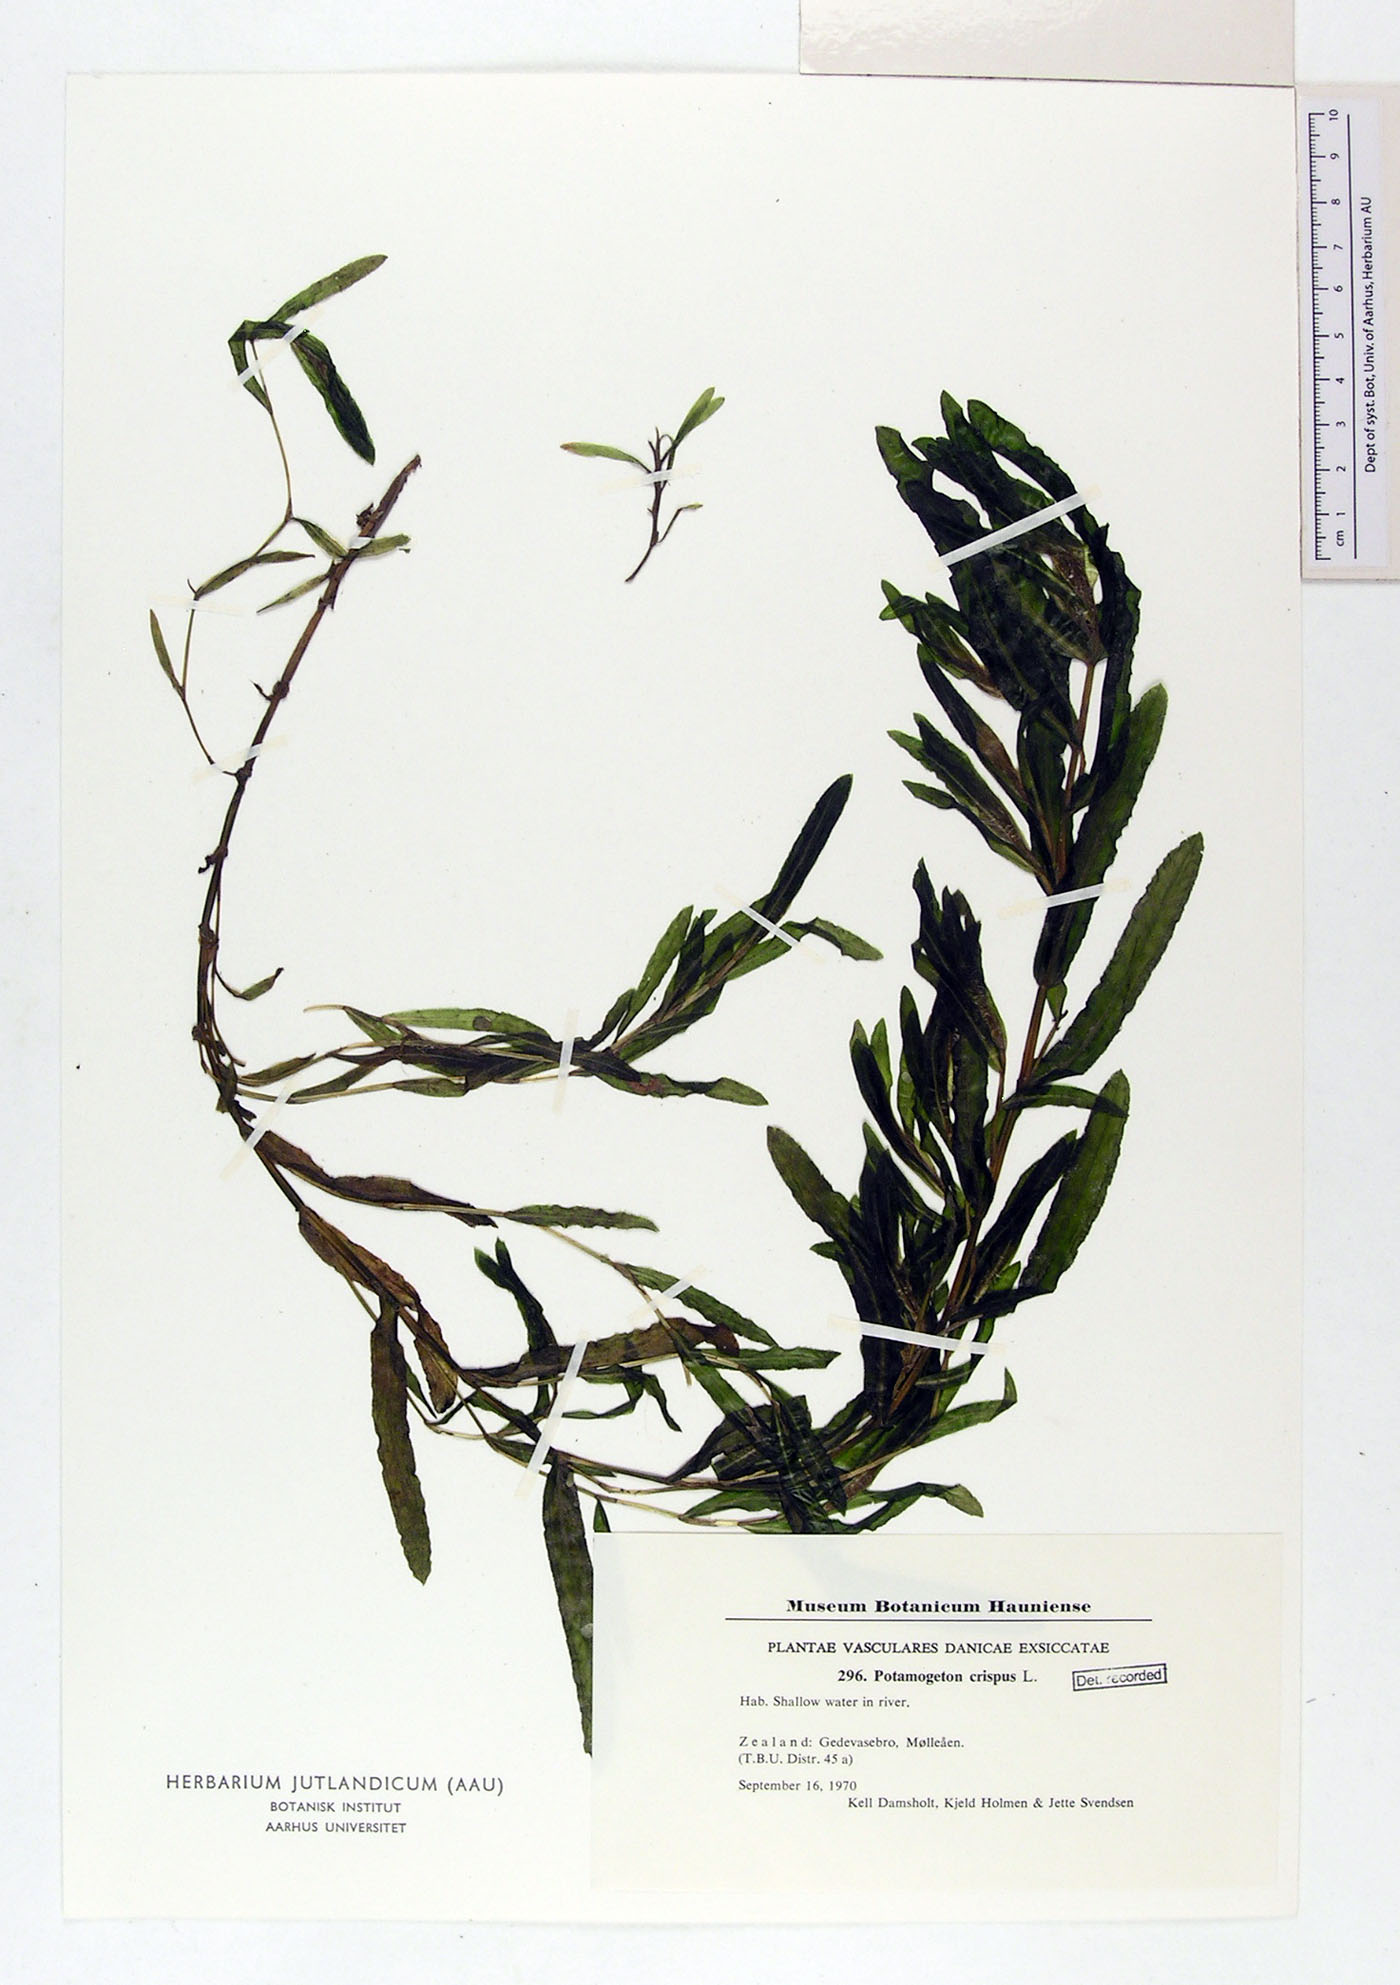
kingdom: Plantae
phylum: Tracheophyta
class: Liliopsida
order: Alismatales
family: Potamogetonaceae
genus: Potamogeton
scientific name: Potamogeton crispus
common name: Curled pondweed
